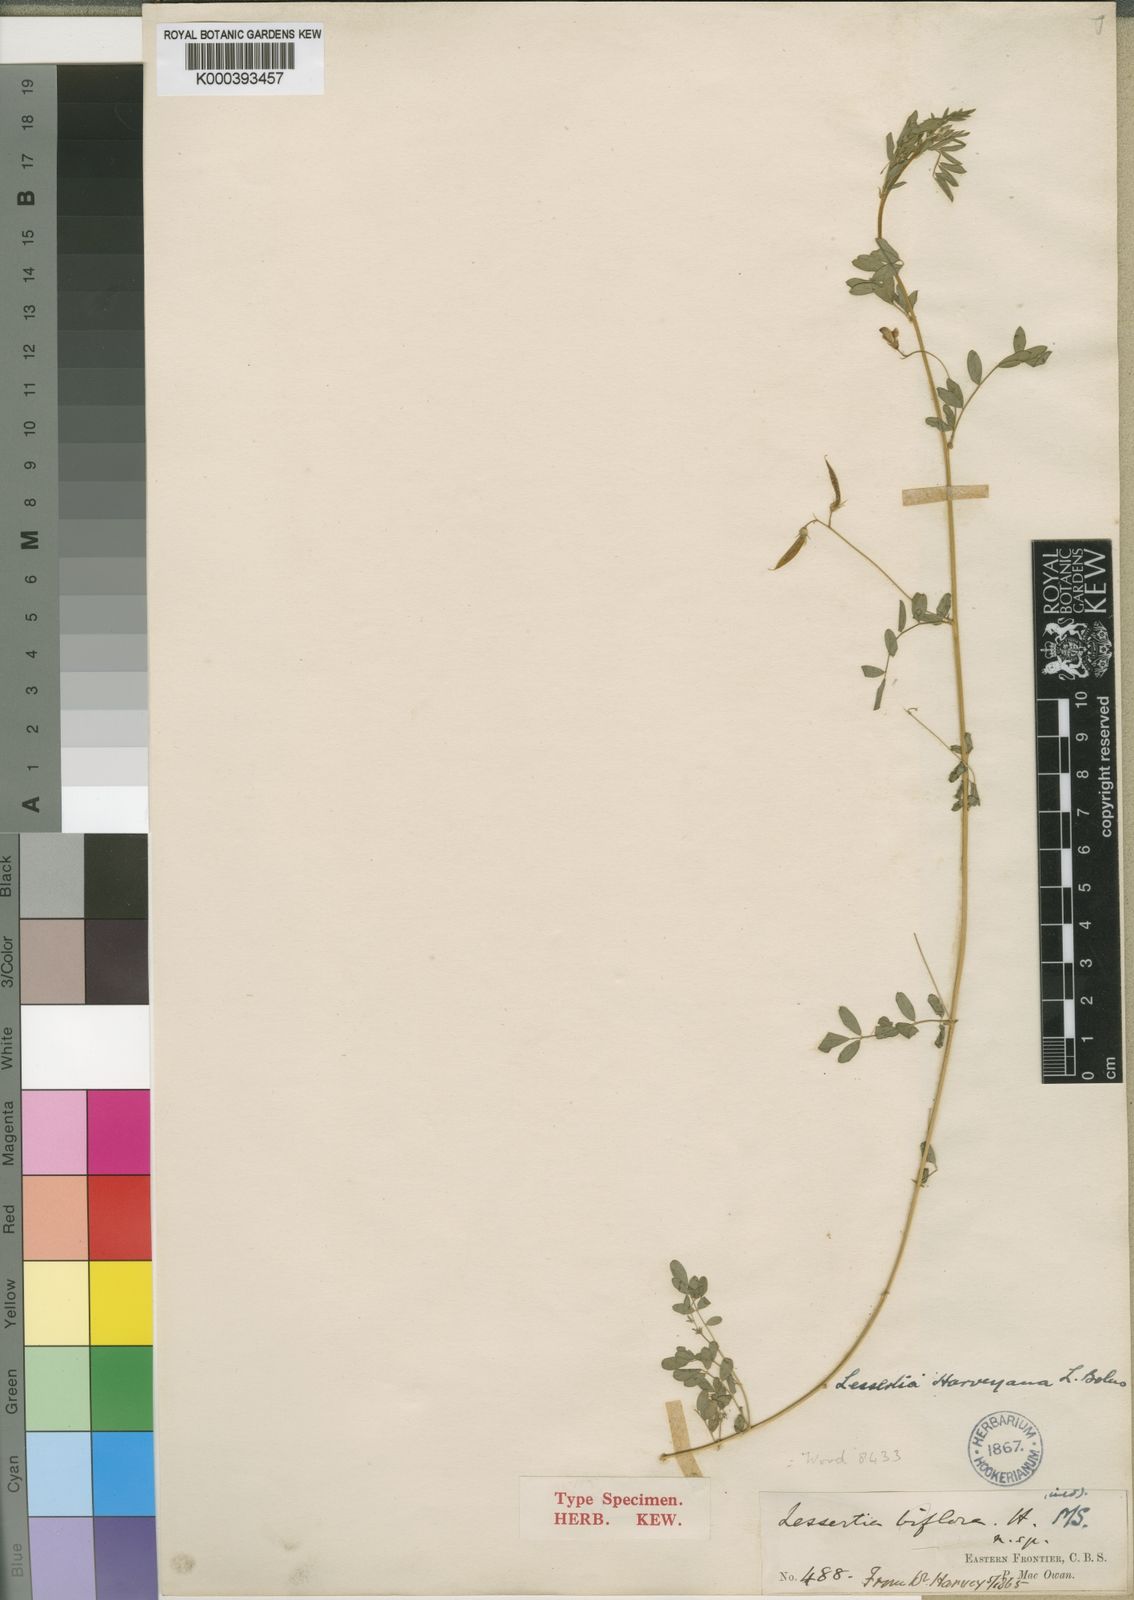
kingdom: Plantae
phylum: Tracheophyta
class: Magnoliopsida
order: Fabales
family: Fabaceae
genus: Lessertia
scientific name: Lessertia harveyana
